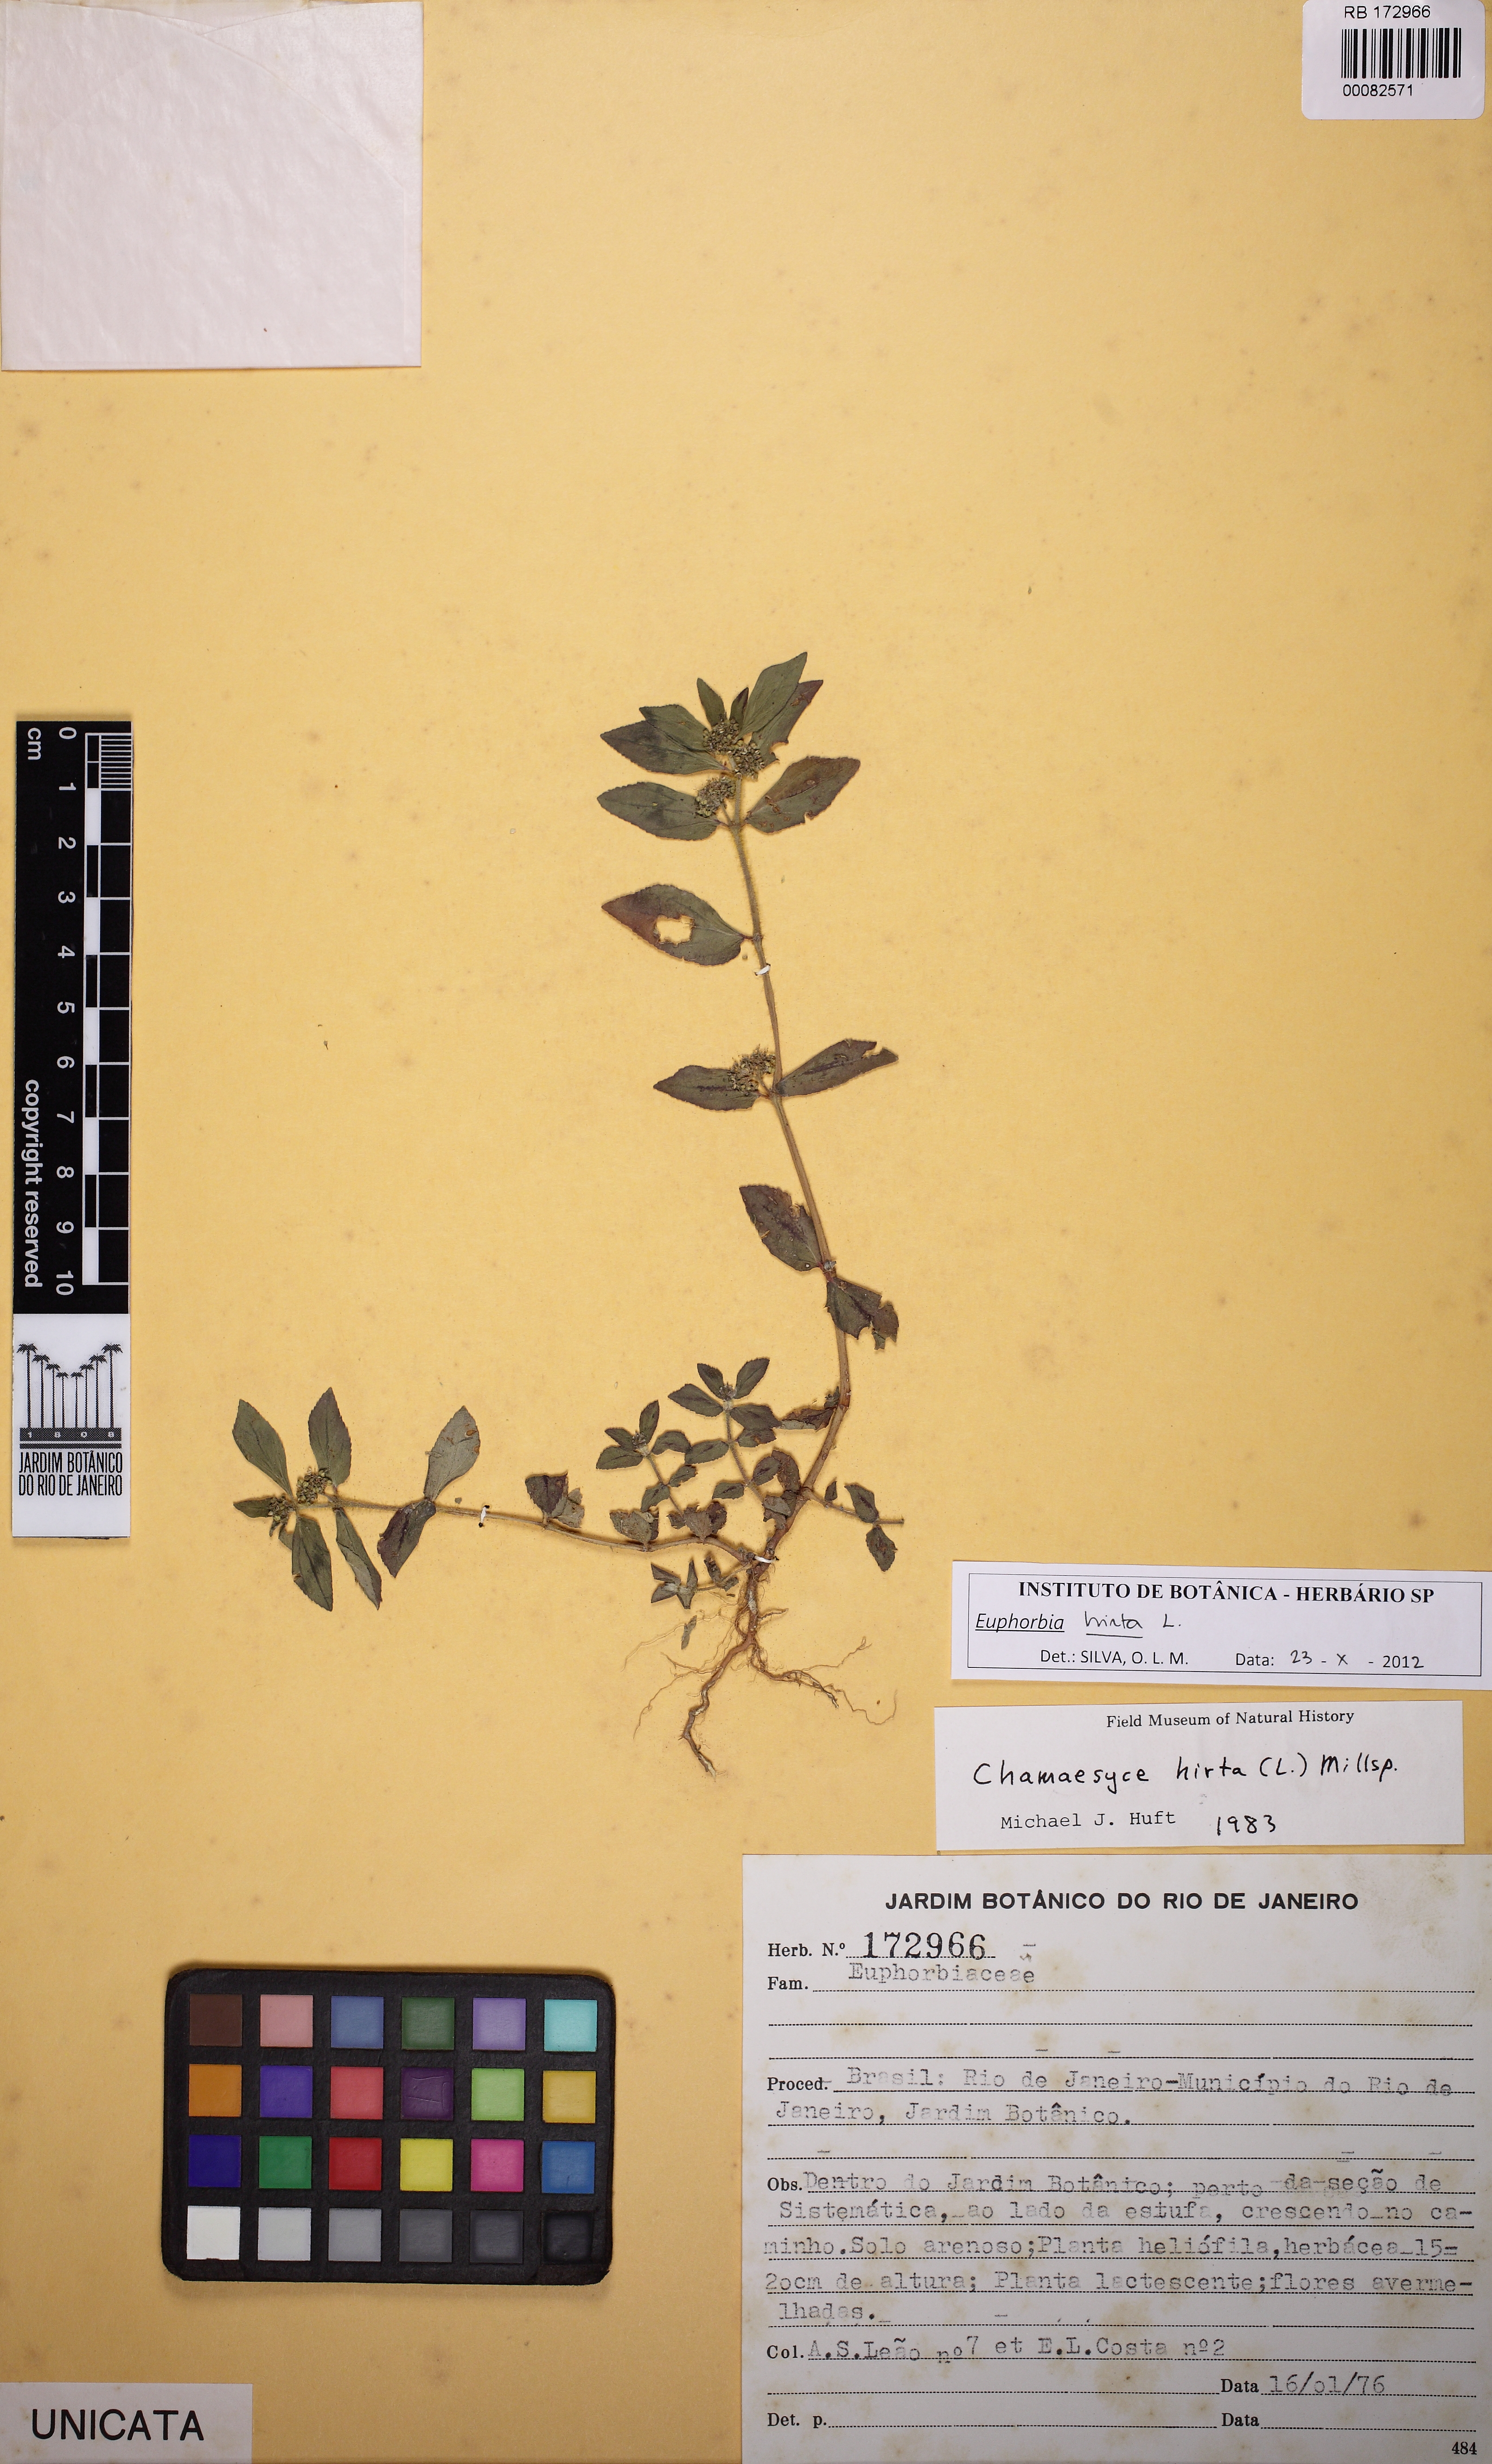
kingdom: Plantae
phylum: Tracheophyta
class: Magnoliopsida
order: Malpighiales
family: Euphorbiaceae
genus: Euphorbia
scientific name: Euphorbia hirta
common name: Pillpod sandmat
